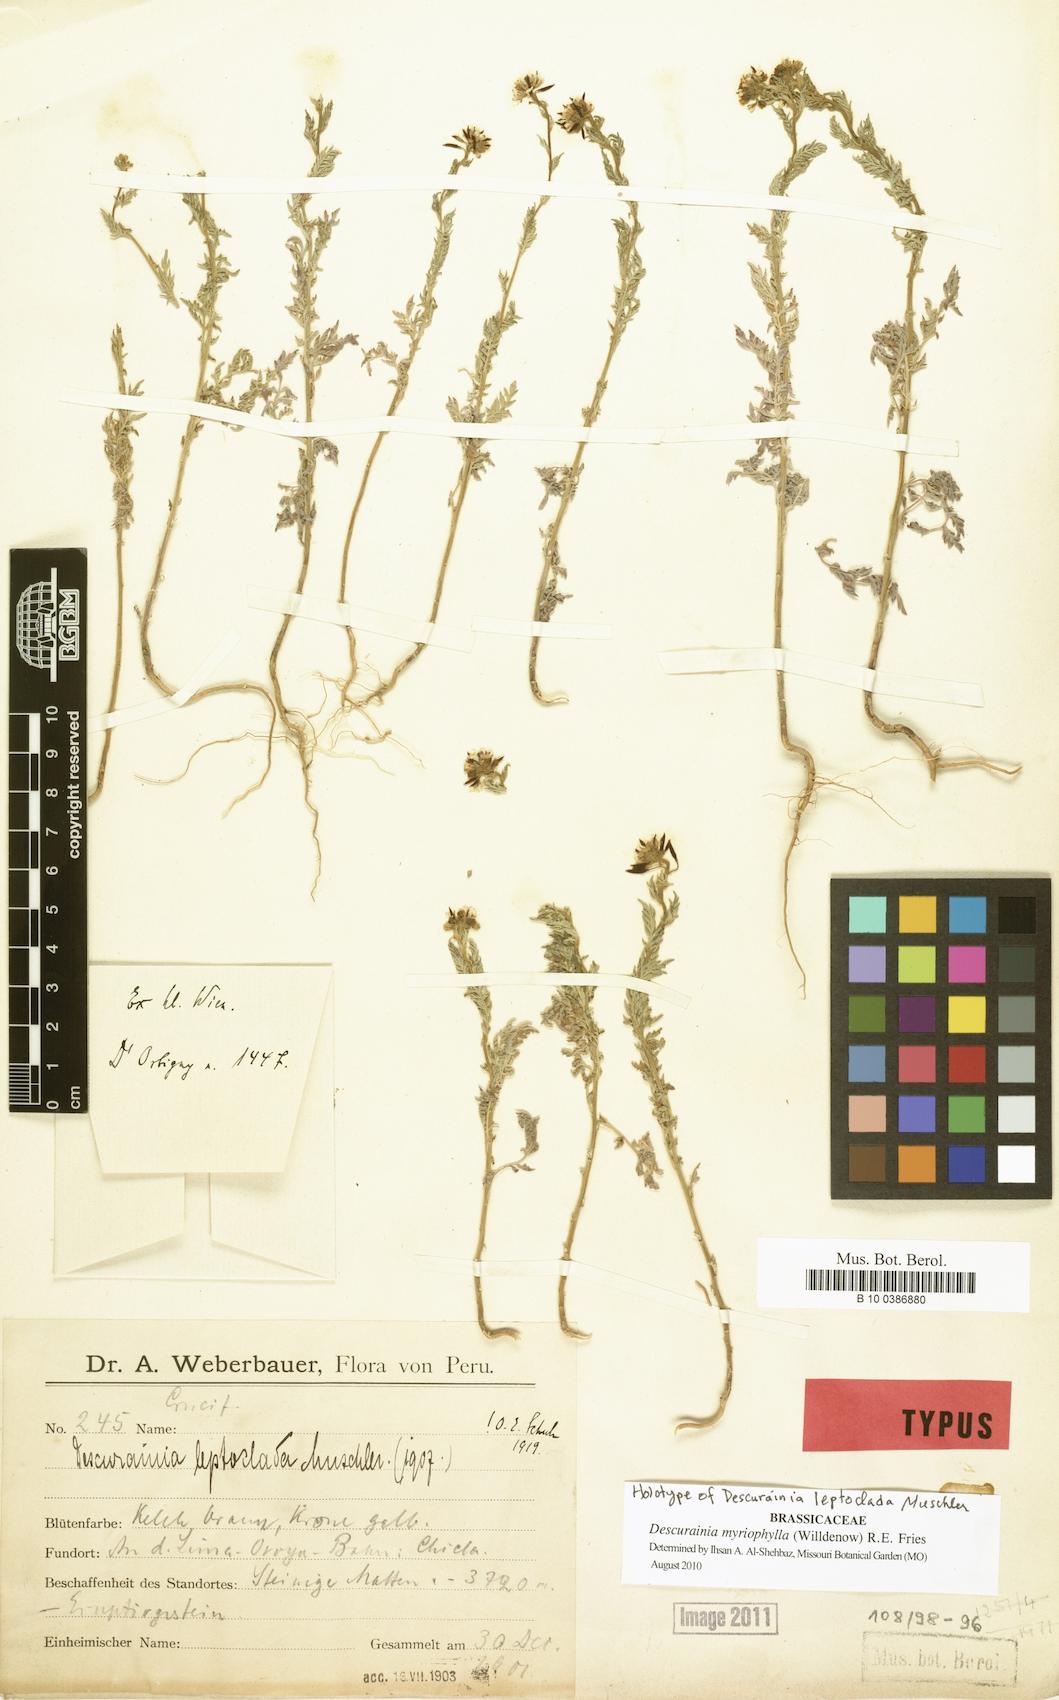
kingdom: Plantae
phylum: Tracheophyta
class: Magnoliopsida
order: Brassicales
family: Brassicaceae
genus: Descurainia
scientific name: Descurainia myriophylla
